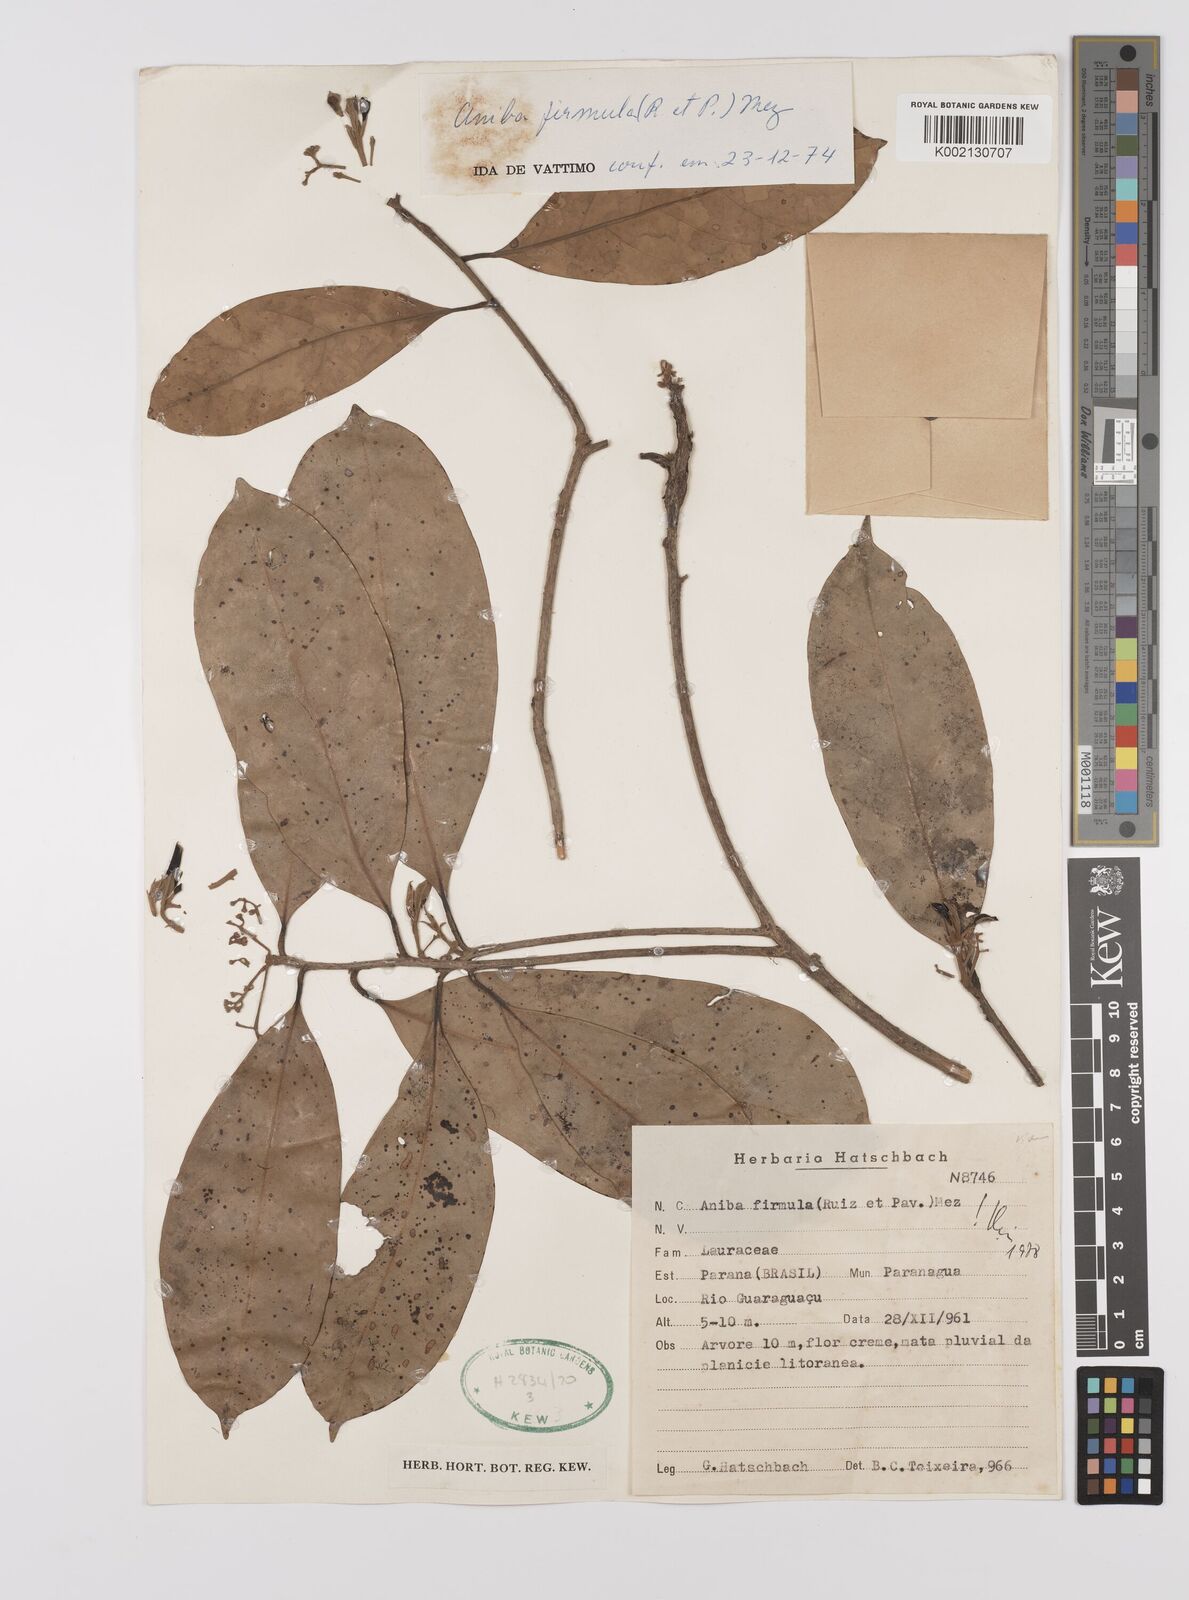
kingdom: Plantae
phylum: Tracheophyta
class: Magnoliopsida
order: Laurales
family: Lauraceae
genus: Aniba
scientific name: Aniba firmula
